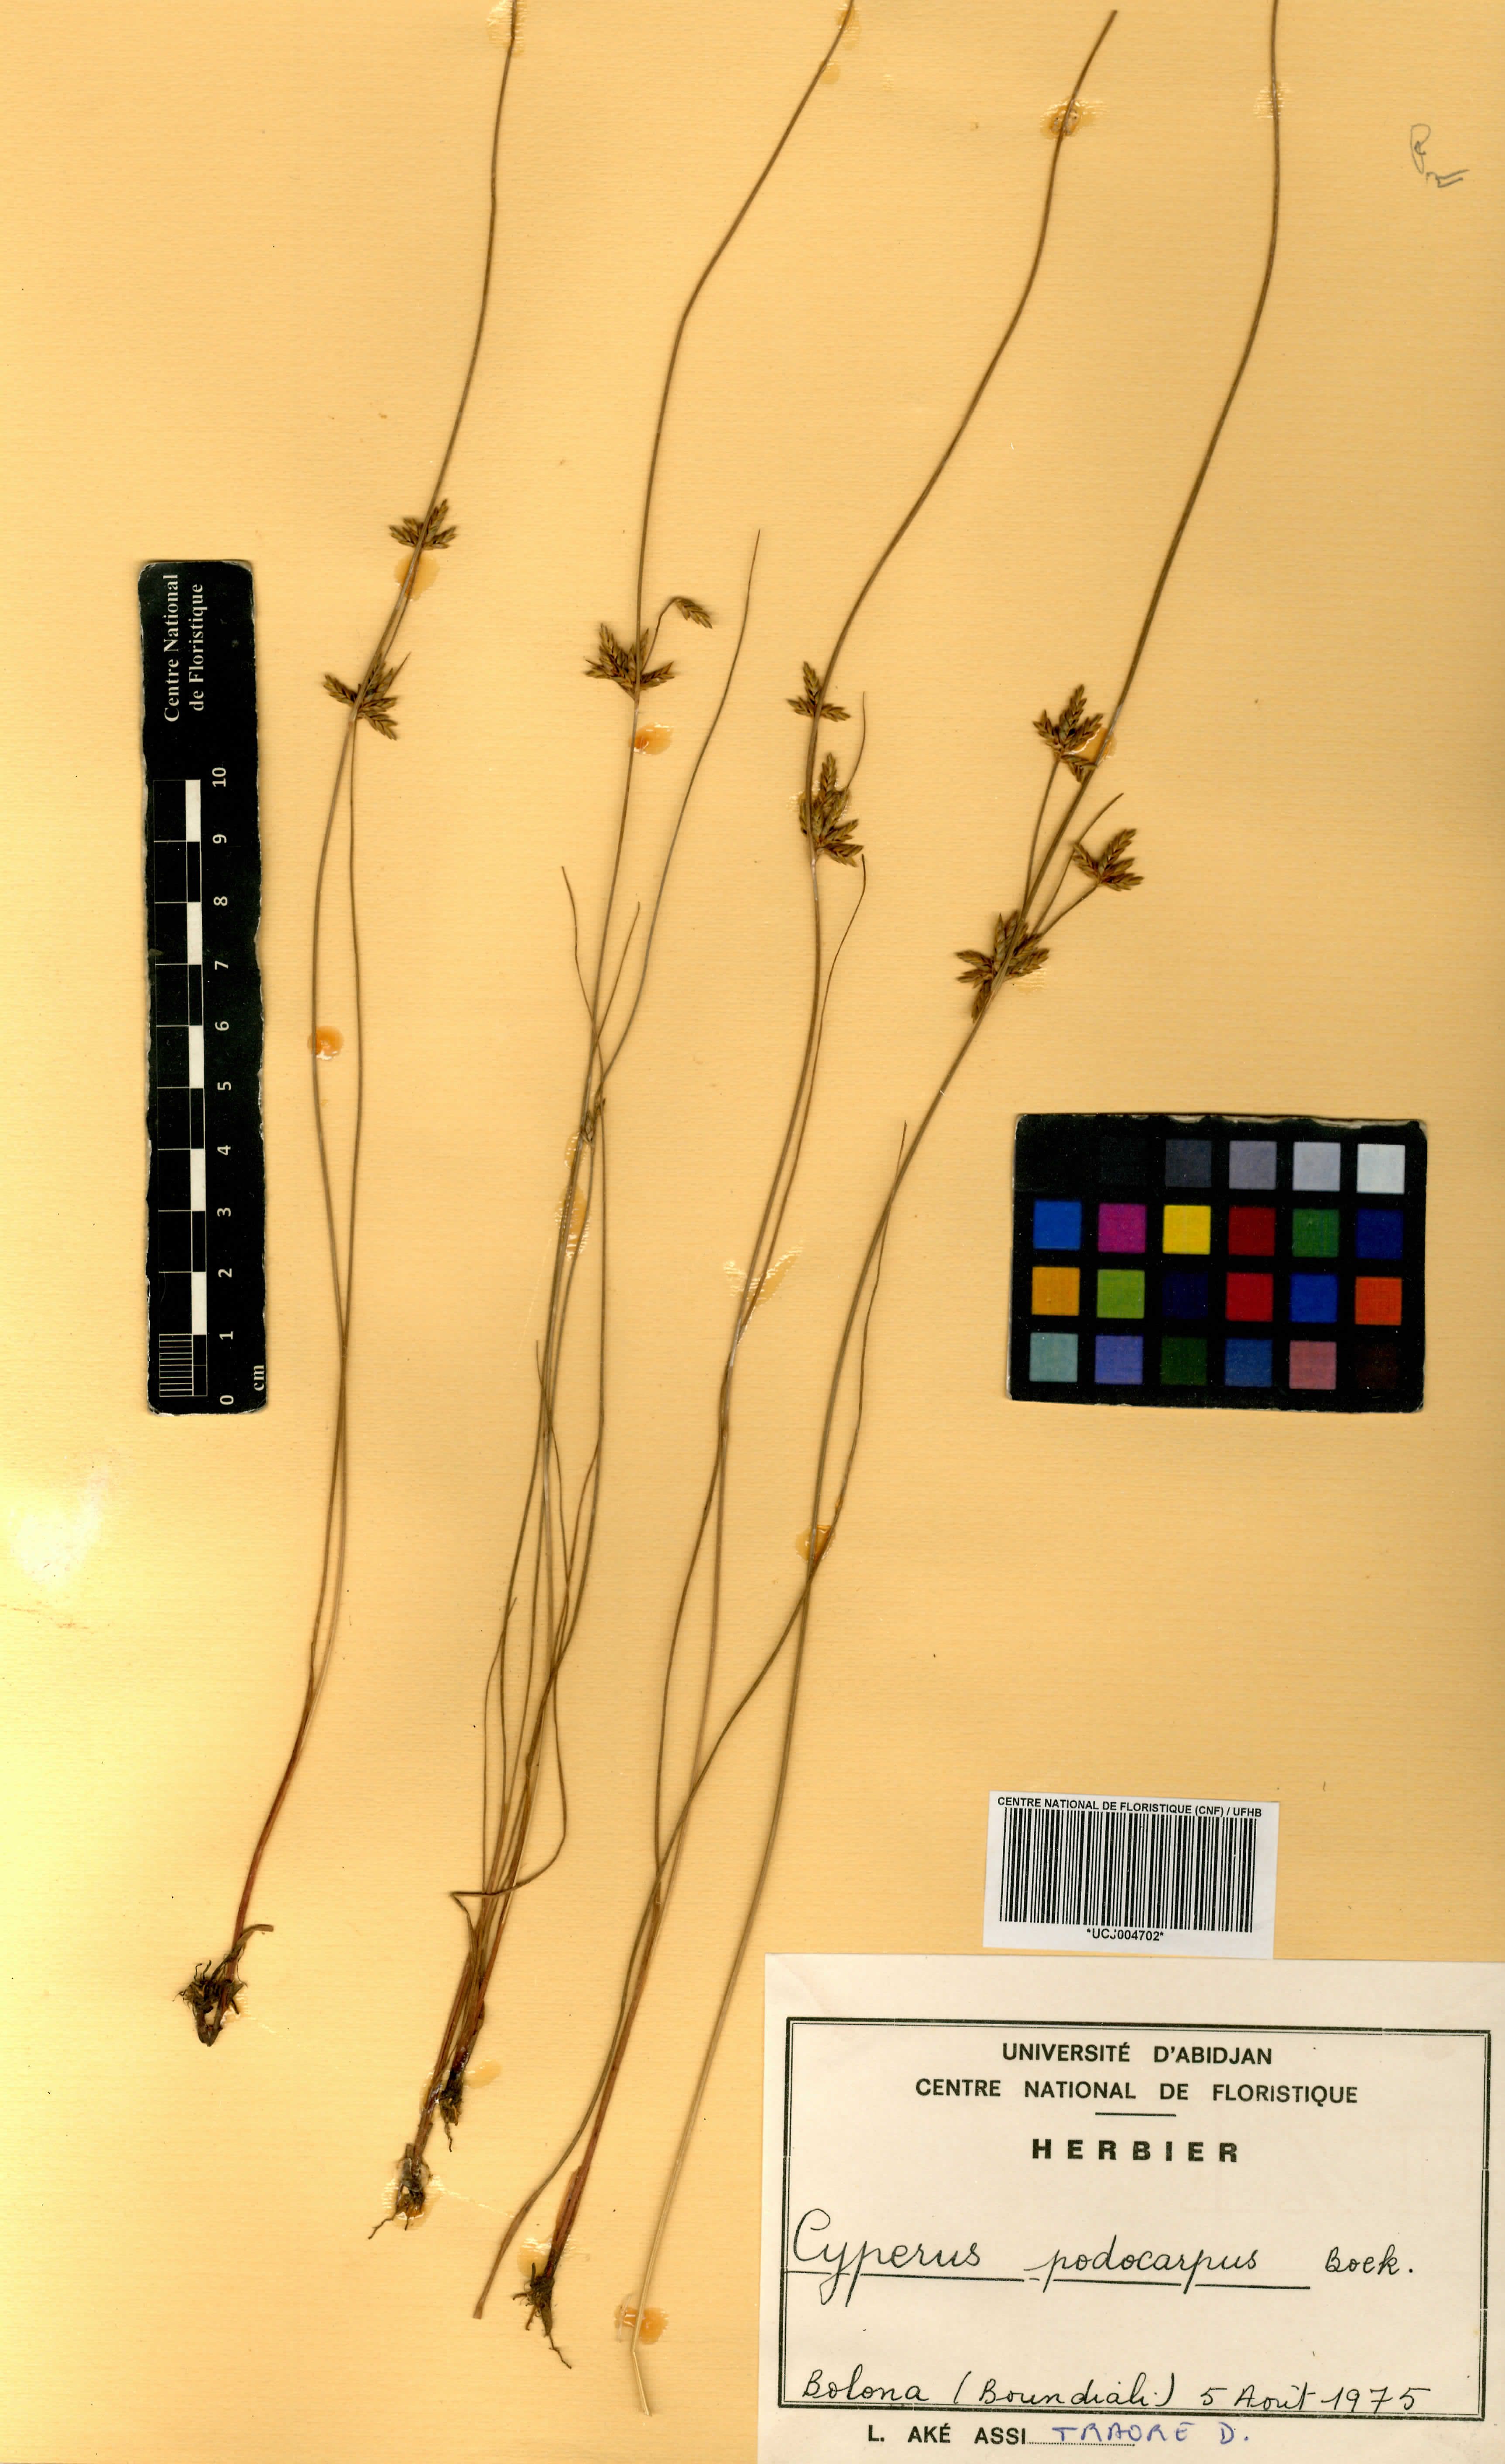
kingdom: Plantae
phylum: Tracheophyta
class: Liliopsida
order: Poales
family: Cyperaceae
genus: Cyperus
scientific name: Cyperus podocarpus
